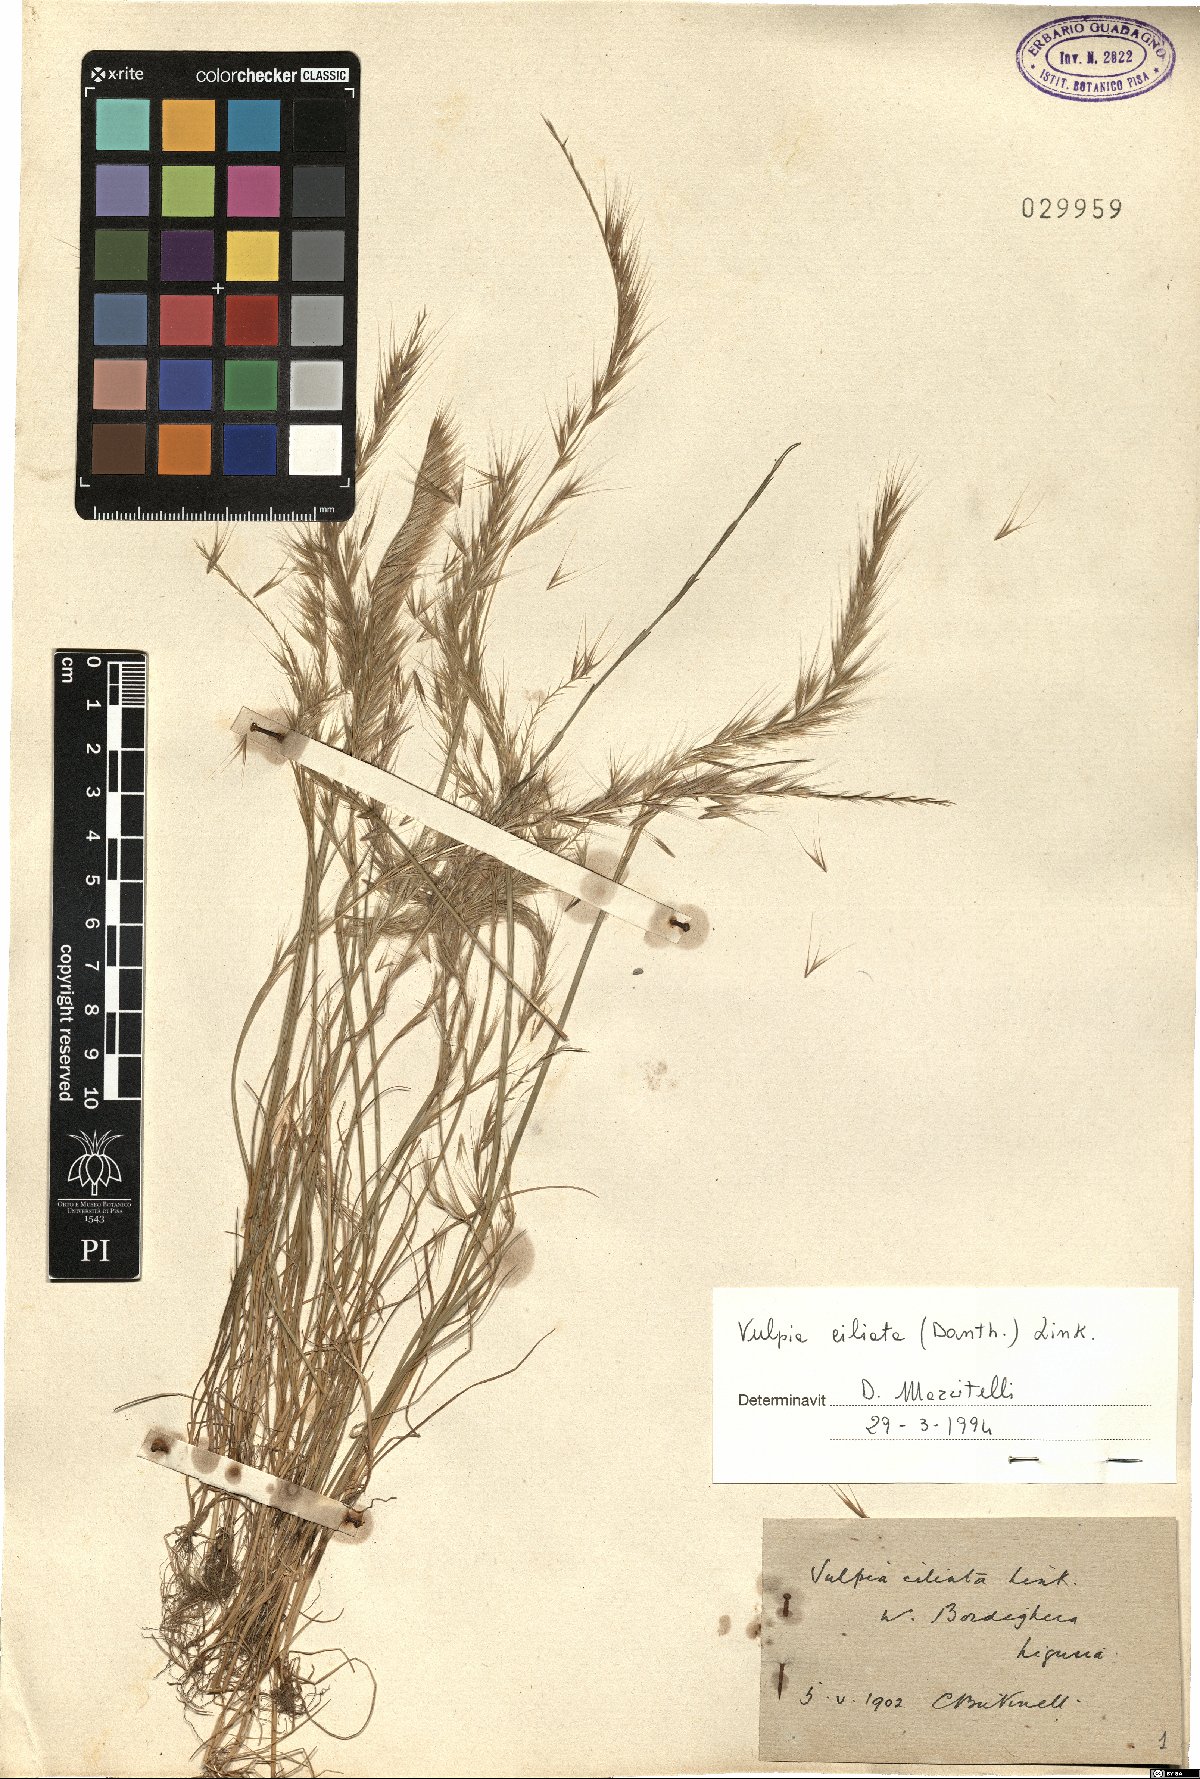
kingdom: Plantae
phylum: Tracheophyta
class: Liliopsida
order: Poales
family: Poaceae
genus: Festuca
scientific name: Festuca ambigua
